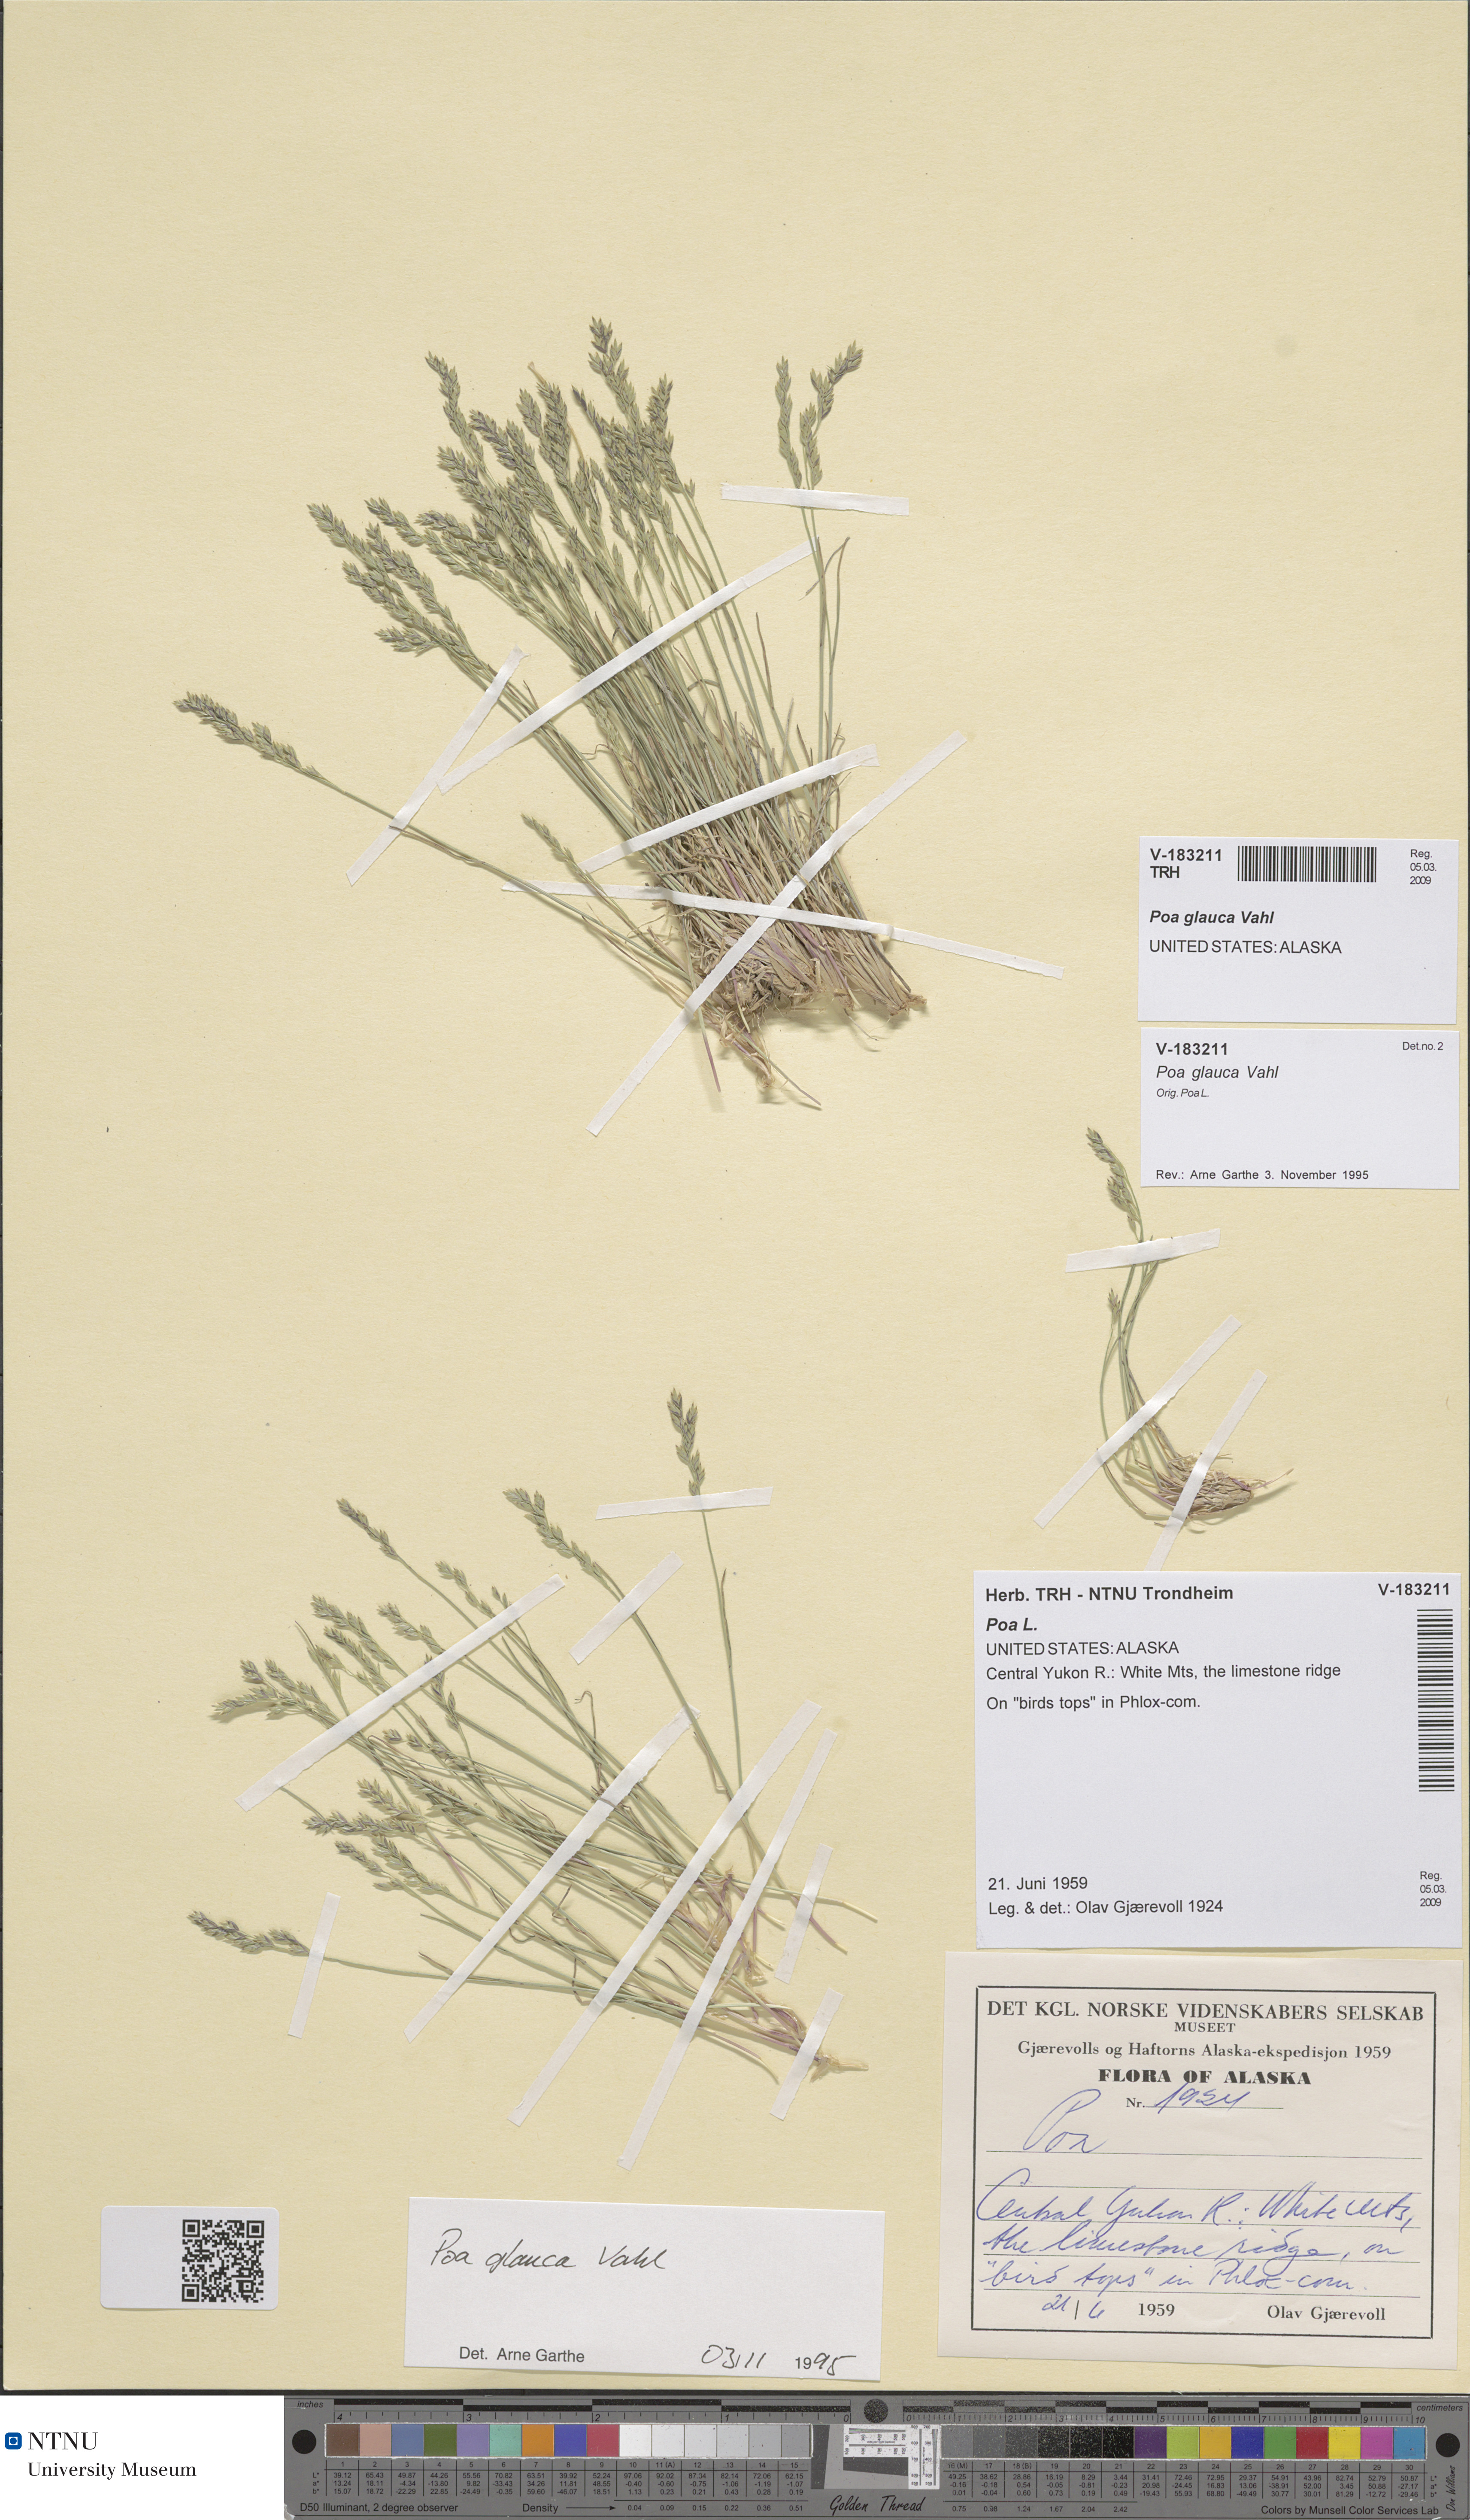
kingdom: Plantae
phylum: Tracheophyta
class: Liliopsida
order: Poales
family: Poaceae
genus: Poa
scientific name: Poa glauca
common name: Glaucous bluegrass
